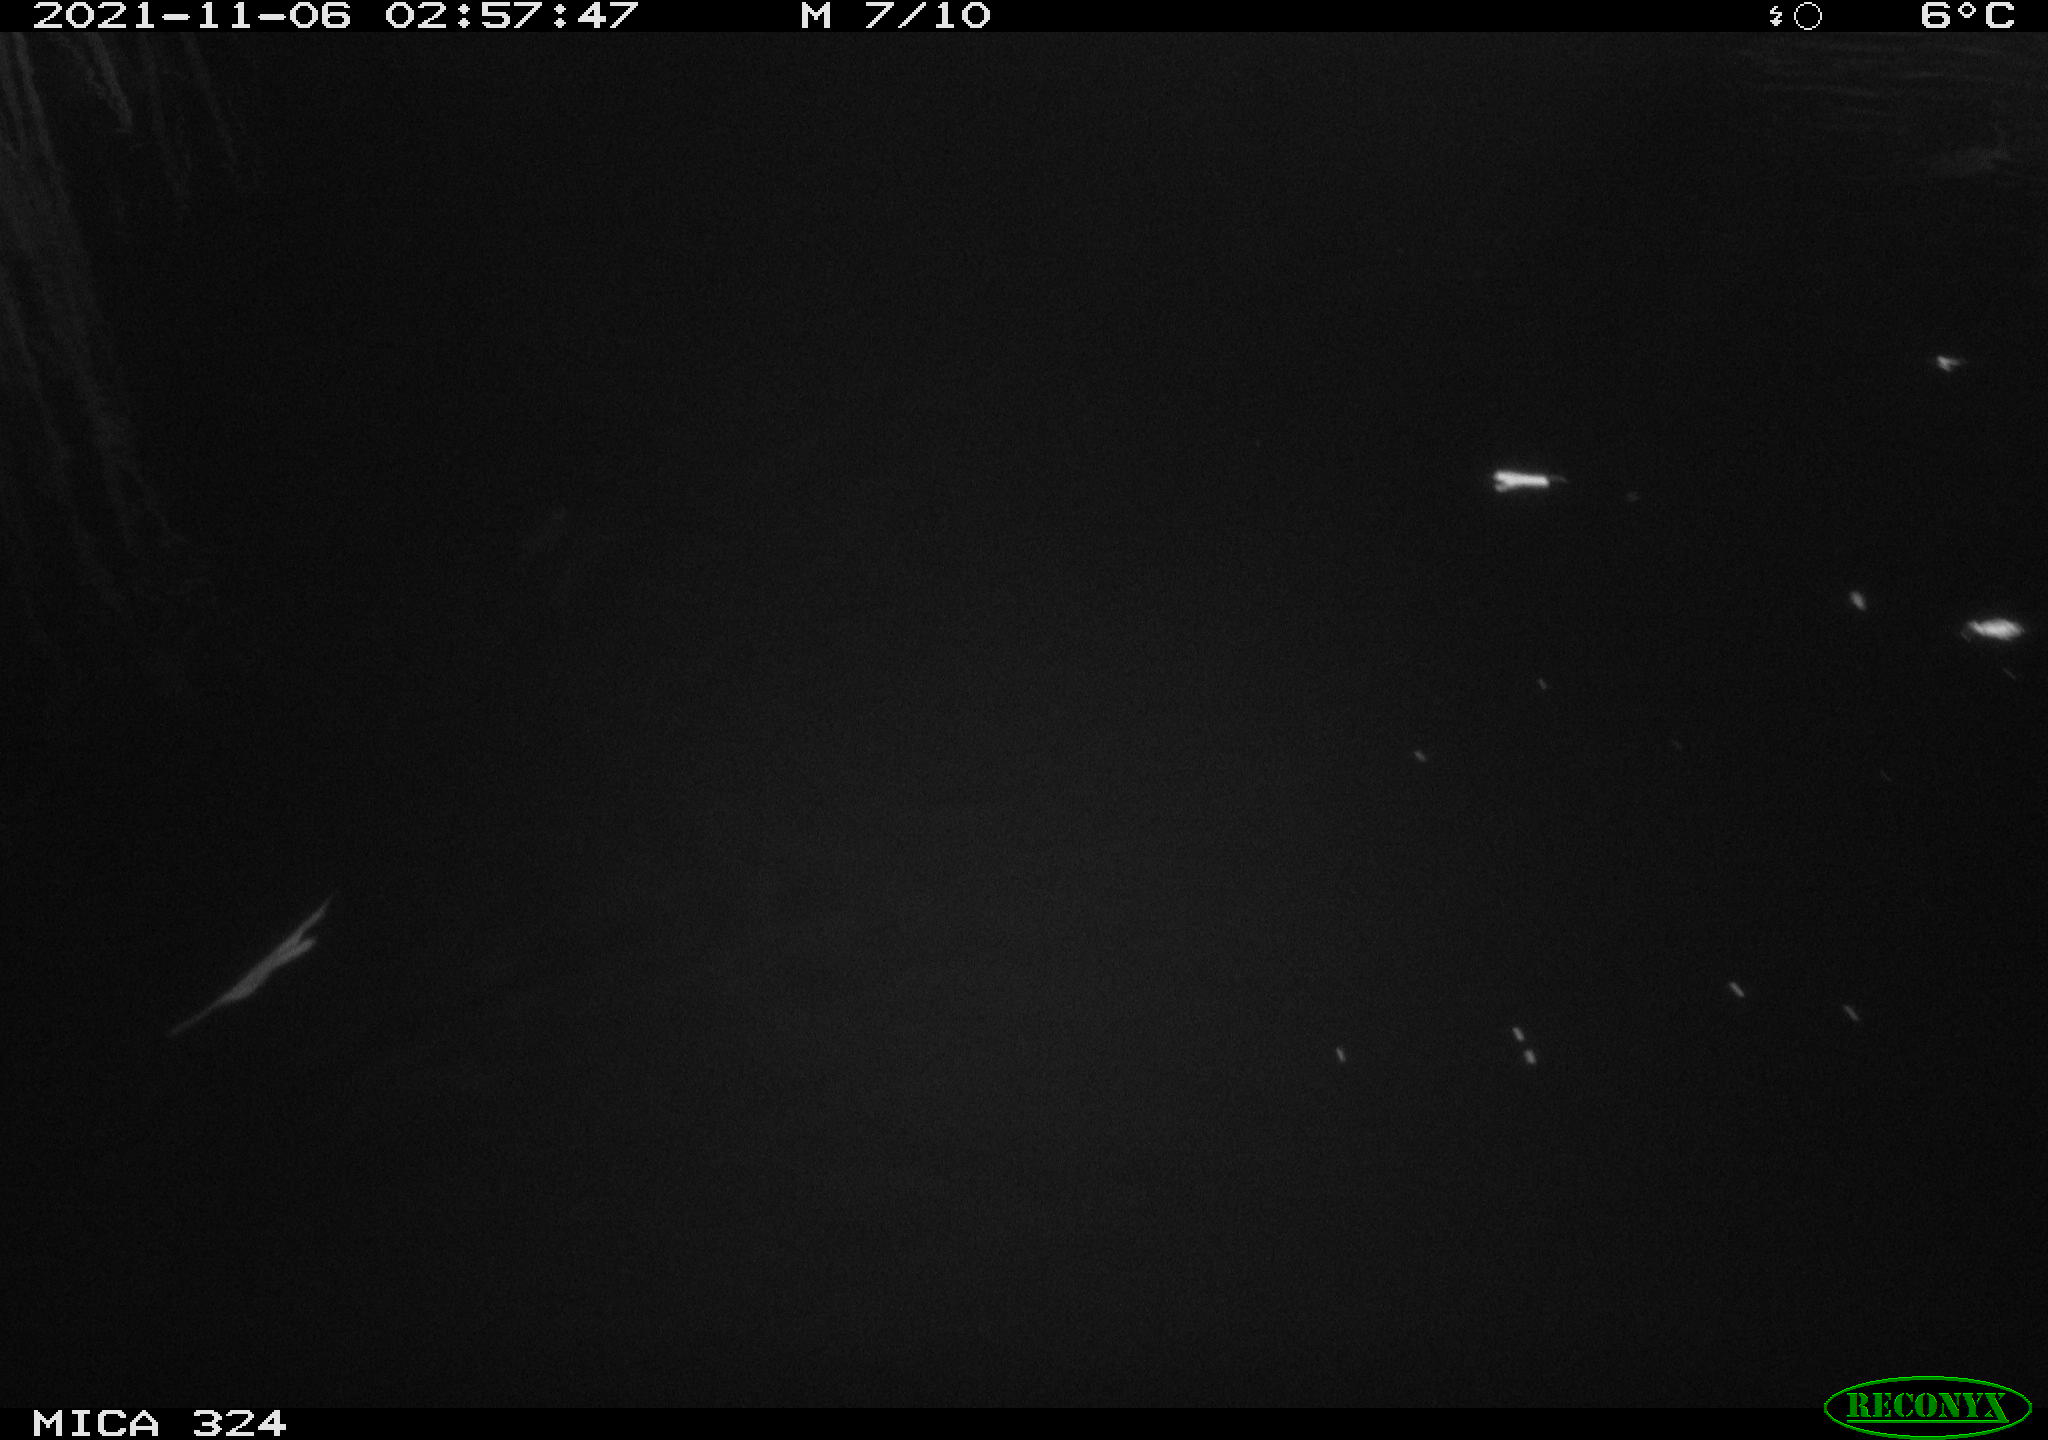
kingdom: Animalia
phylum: Chordata
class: Mammalia
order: Rodentia
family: Cricetidae
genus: Ondatra
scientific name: Ondatra zibethicus
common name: Muskrat
